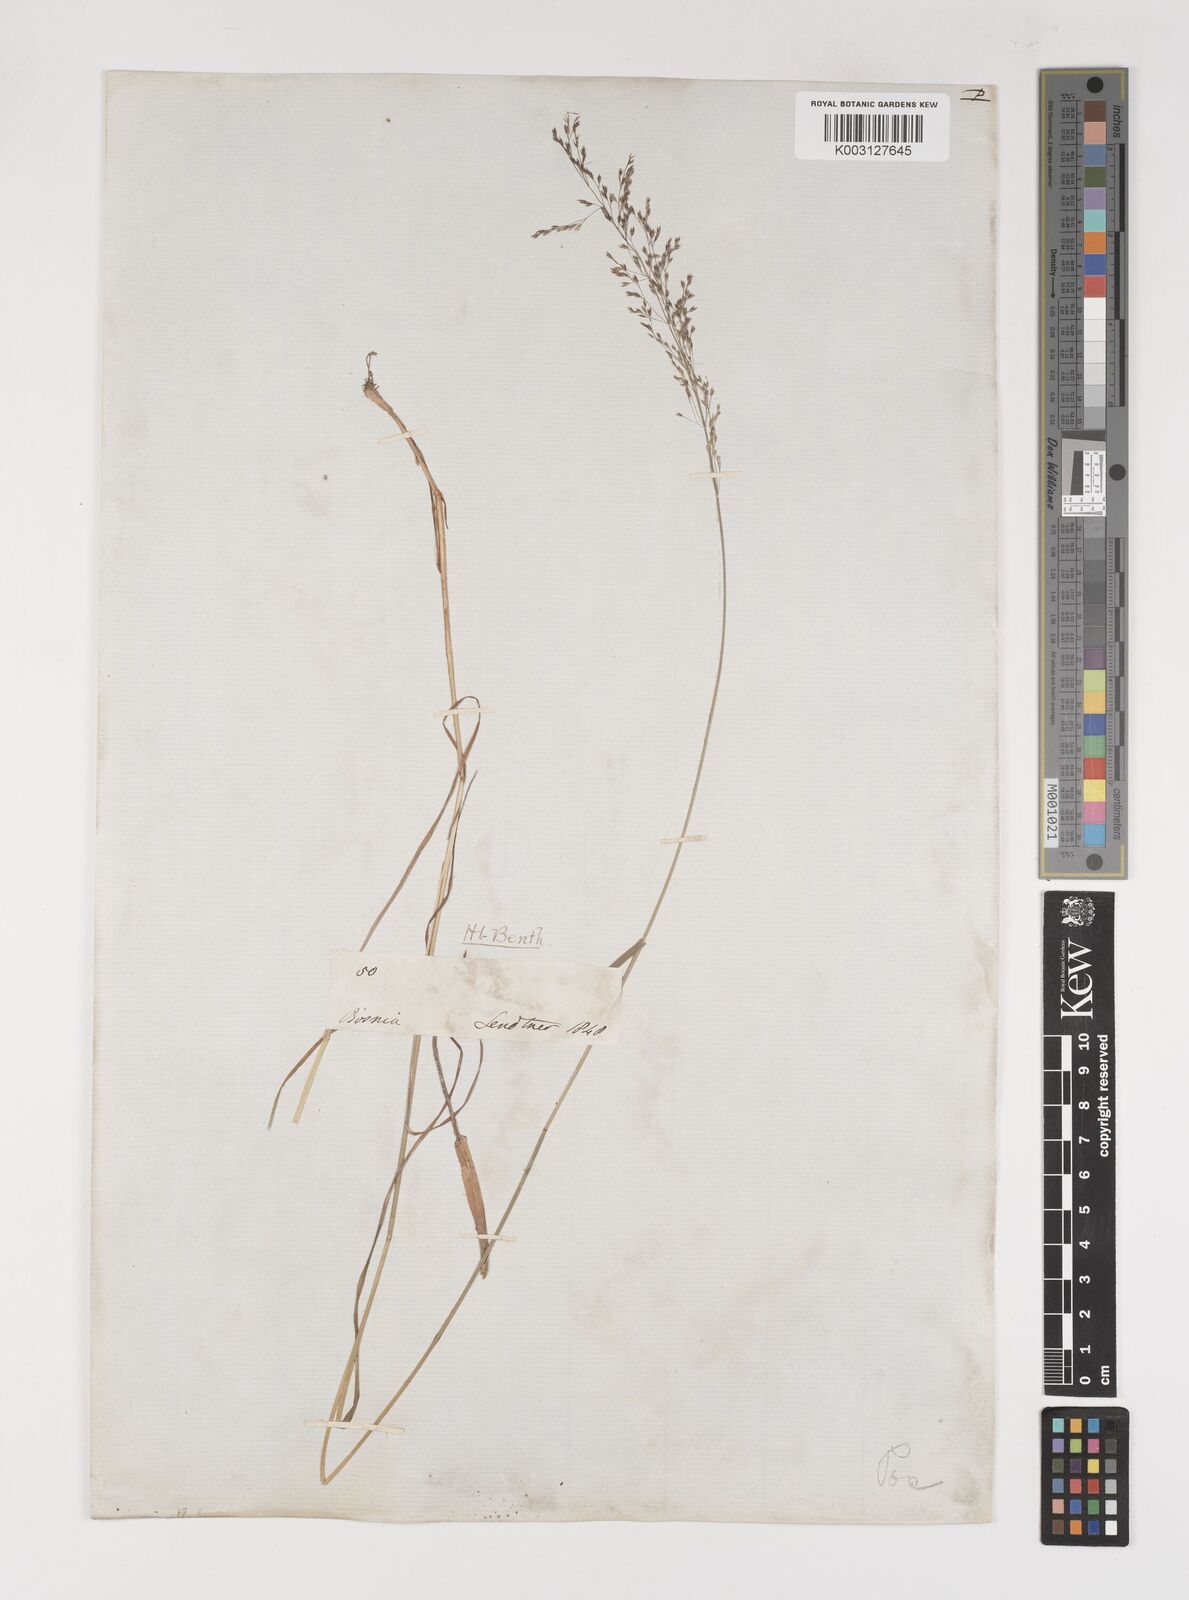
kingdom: Plantae
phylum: Tracheophyta
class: Liliopsida
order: Poales
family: Poaceae
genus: Poa
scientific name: Poa
